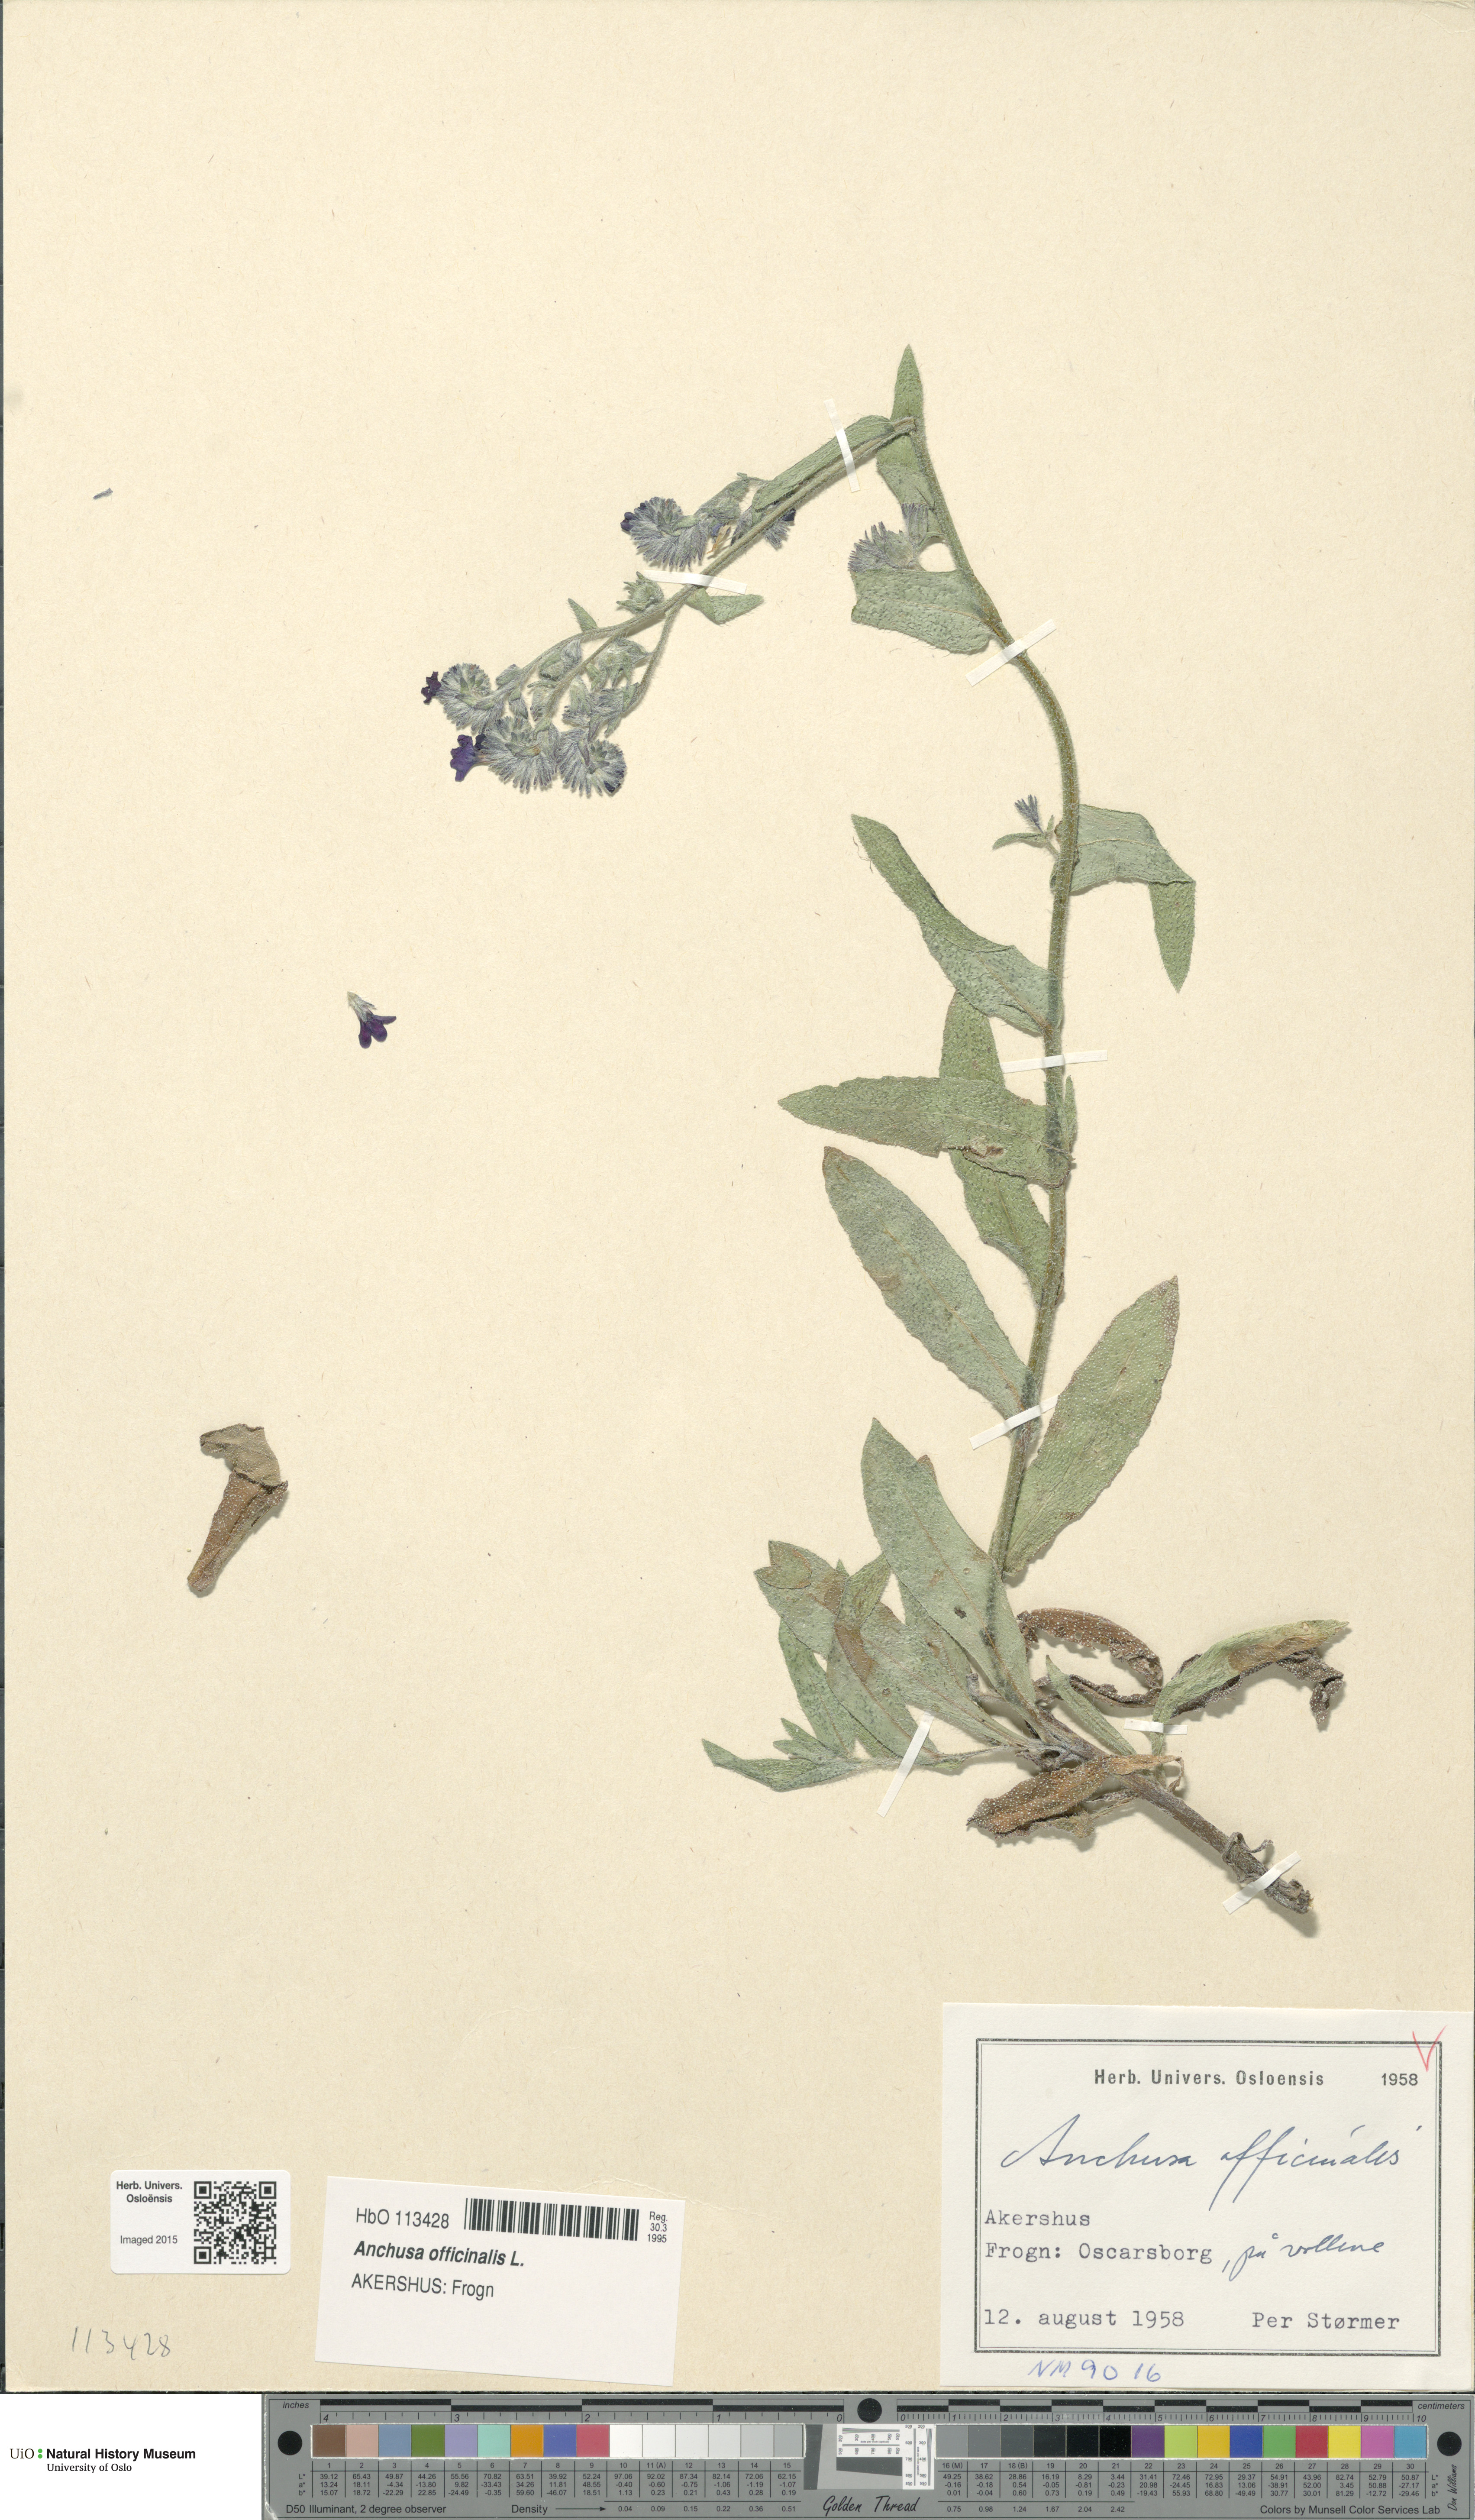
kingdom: Plantae
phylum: Tracheophyta
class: Magnoliopsida
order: Boraginales
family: Boraginaceae
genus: Anchusa
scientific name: Anchusa officinalis
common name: Alkanet
